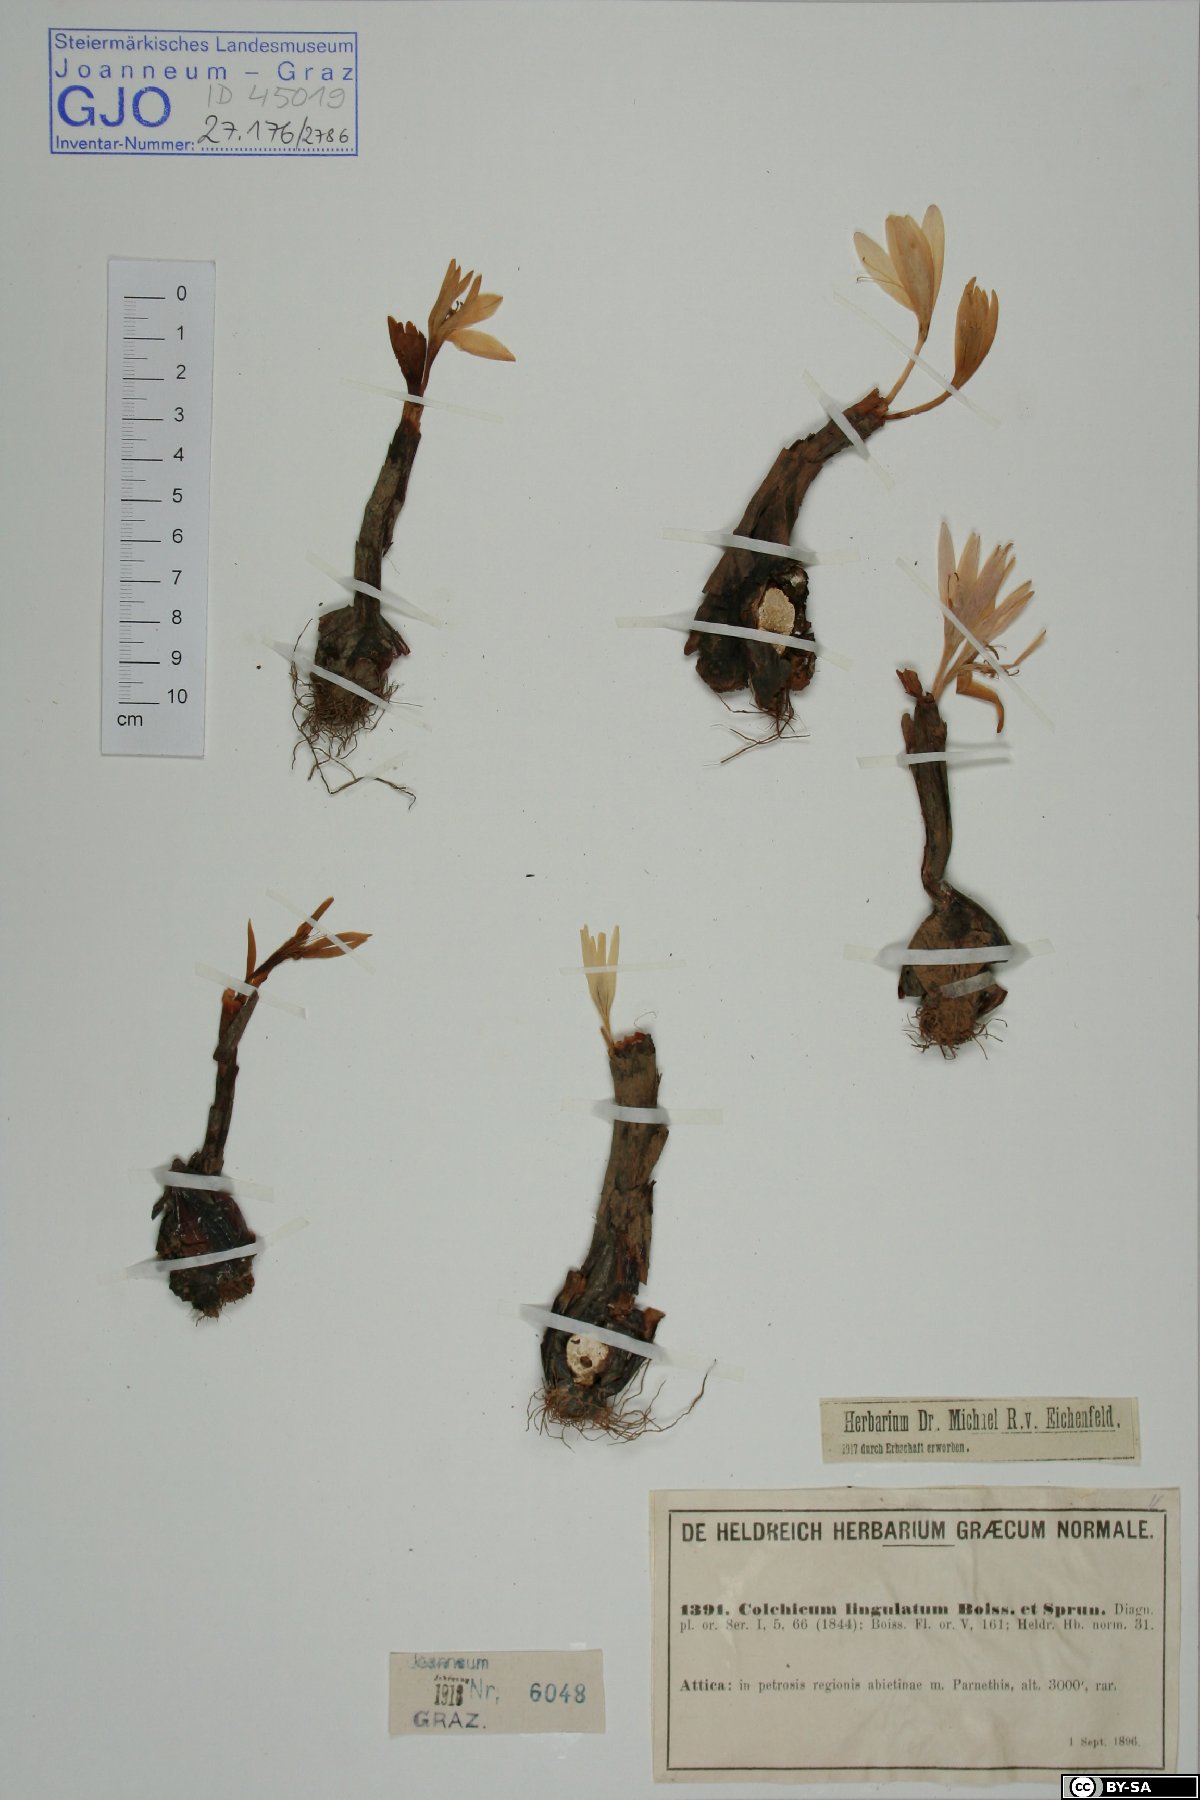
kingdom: Plantae
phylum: Tracheophyta
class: Liliopsida
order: Liliales
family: Colchicaceae
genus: Colchicum
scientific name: Colchicum lingulatum
